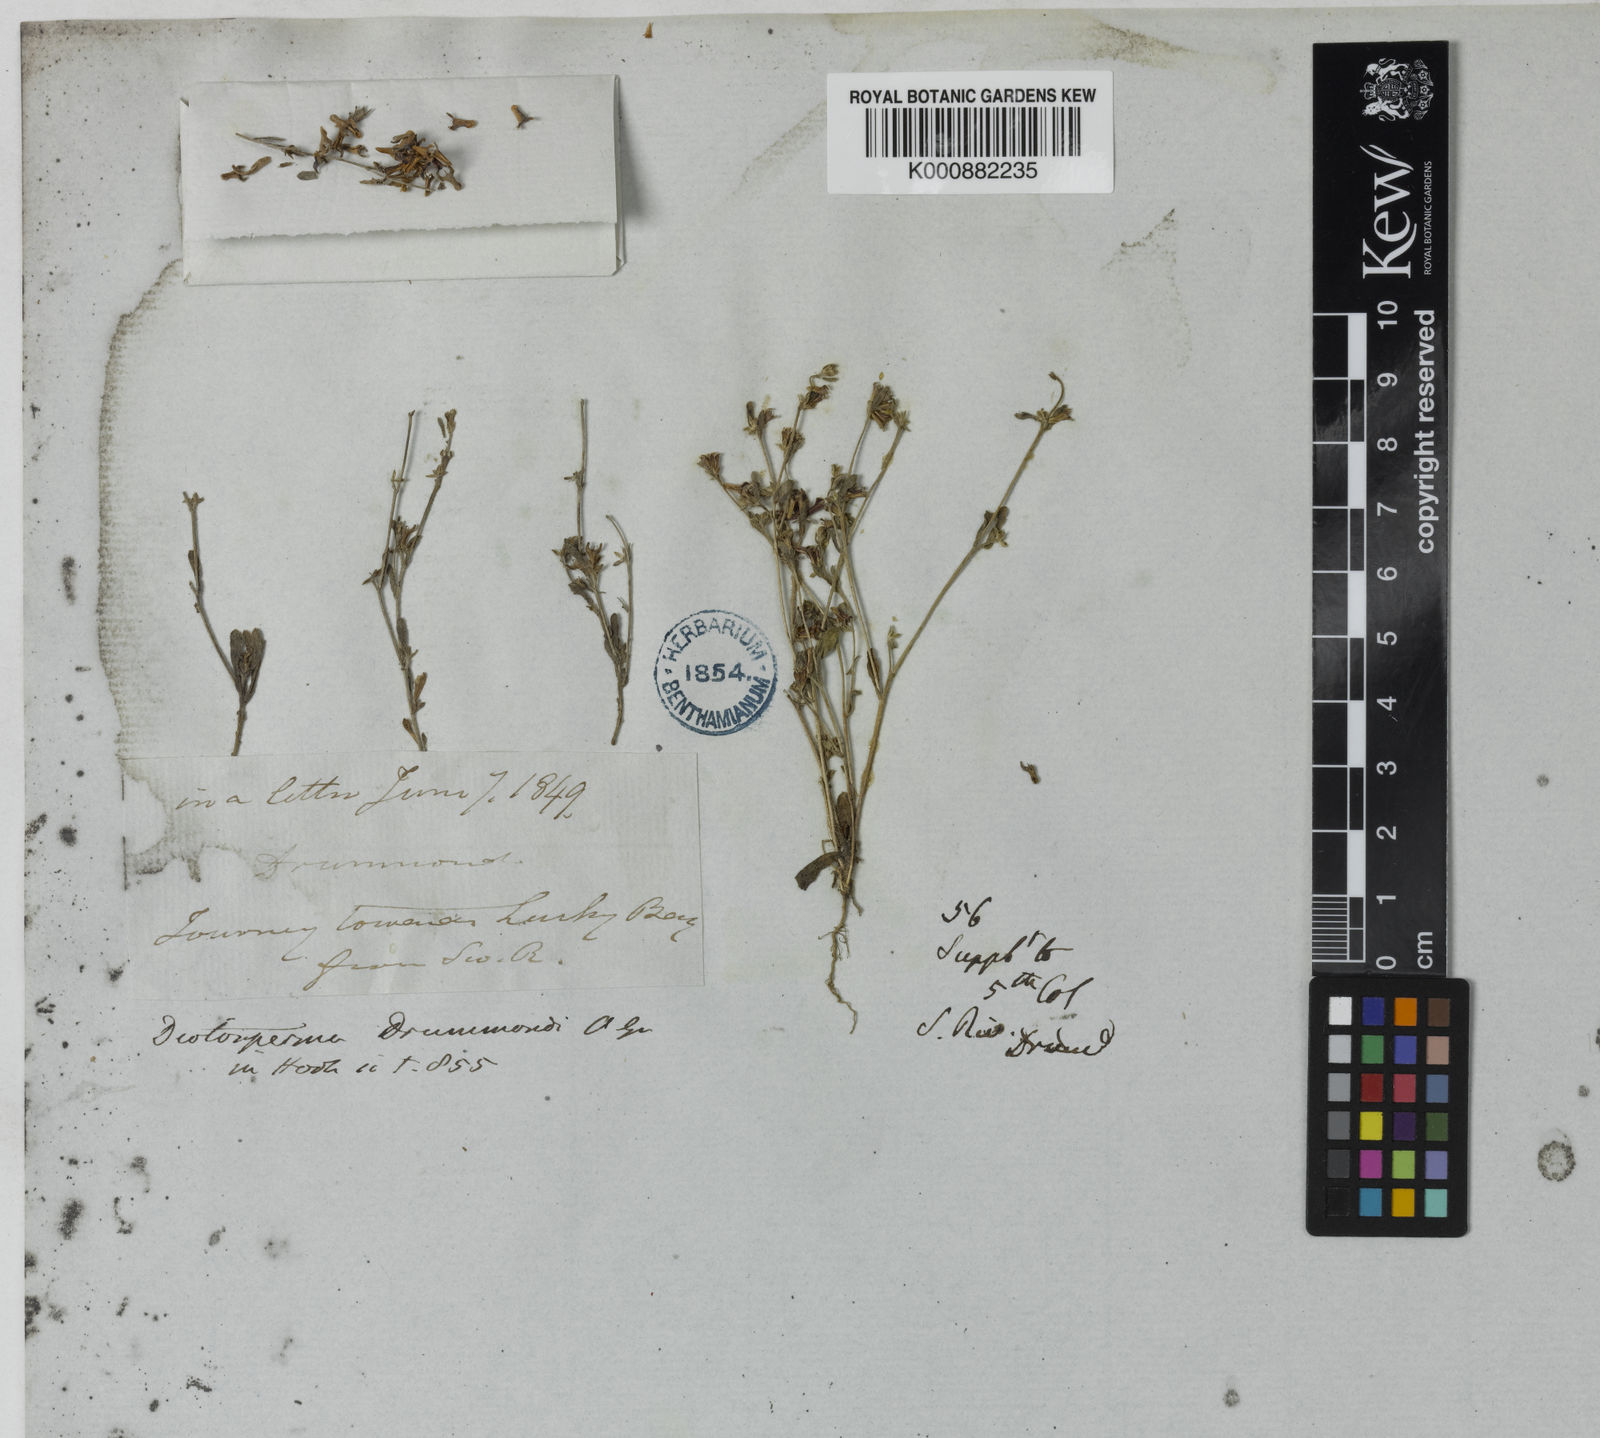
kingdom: Plantae
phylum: Tracheophyta
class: Magnoliopsida
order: Asterales
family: Asteraceae
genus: Ceratogyne
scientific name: Ceratogyne obionoides
